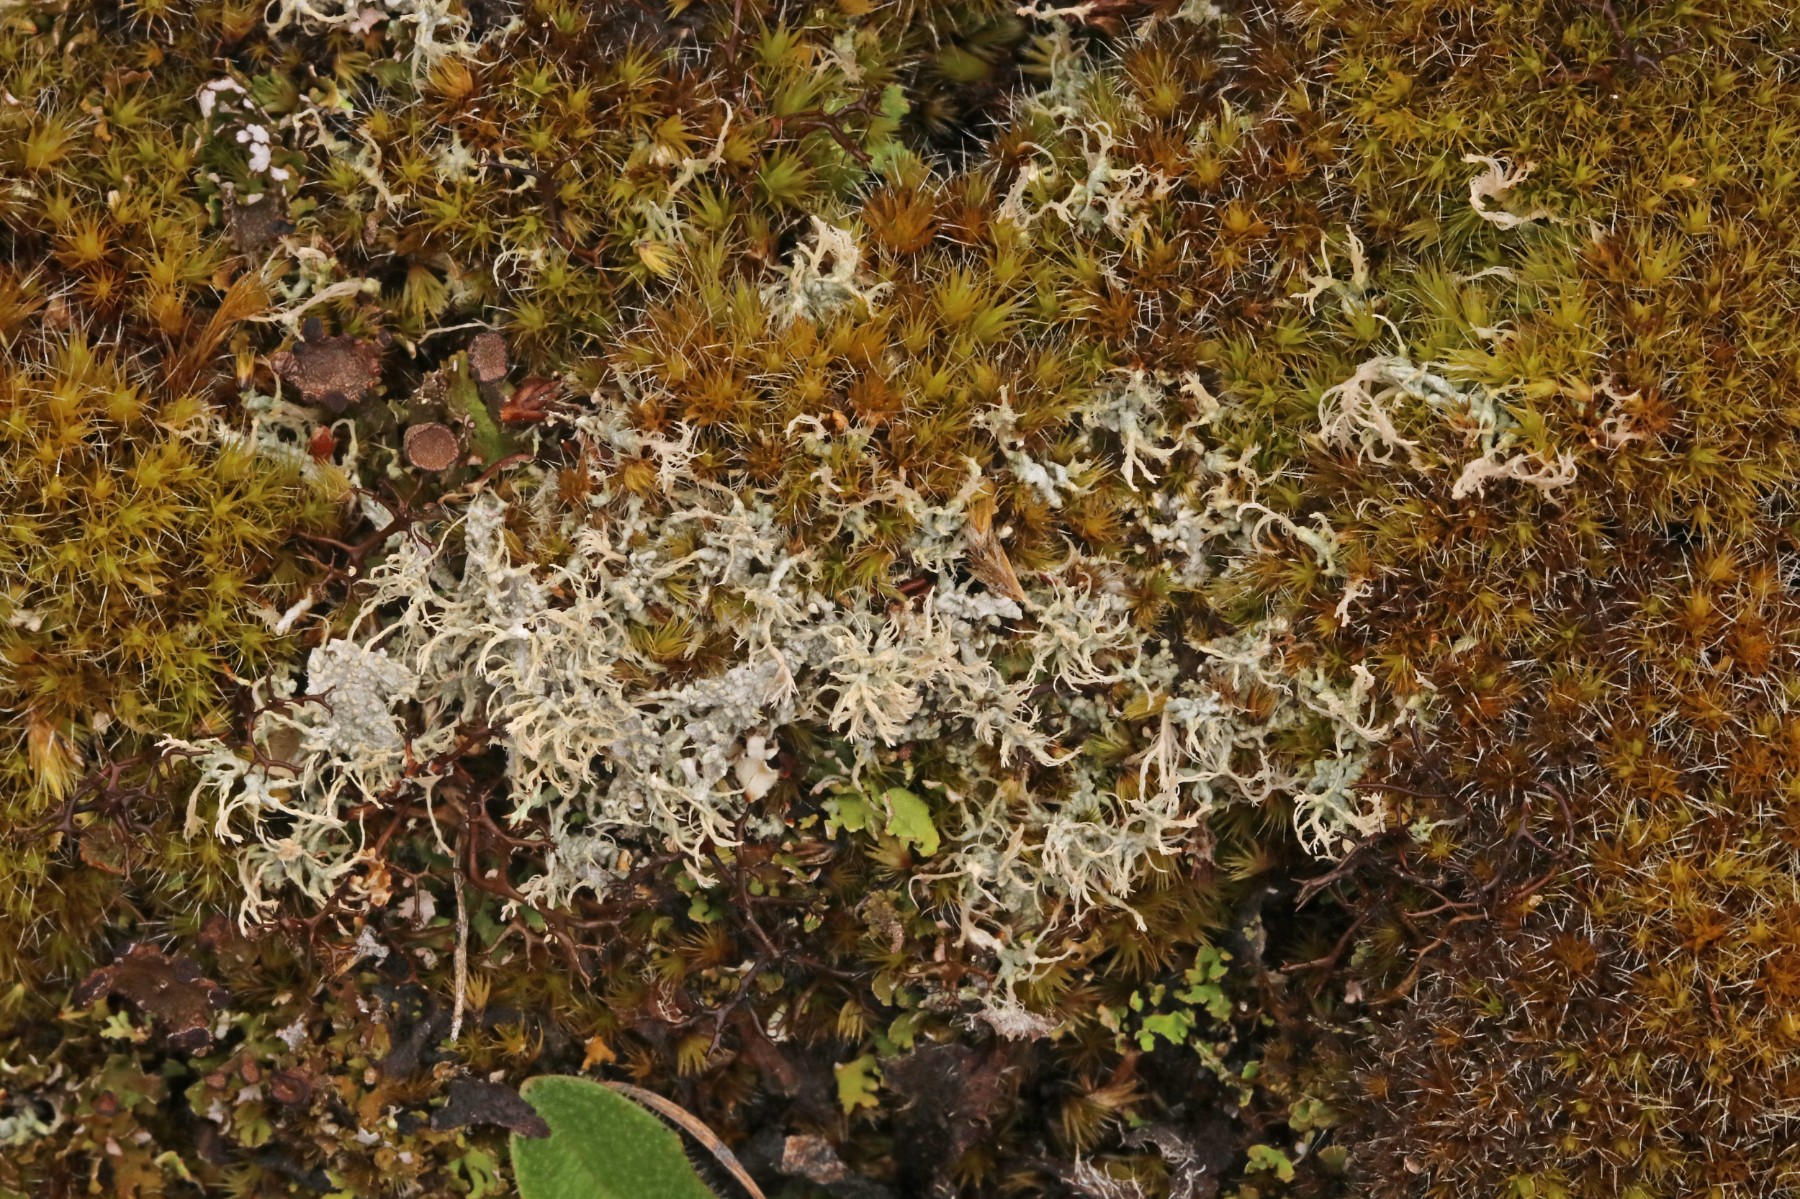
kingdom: Fungi
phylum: Ascomycota
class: Lecanoromycetes
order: Pertusariales
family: Ochrolechiaceae
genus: Ochrolechia
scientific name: Ochrolechia frigida
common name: fjeld-blegskivelav
